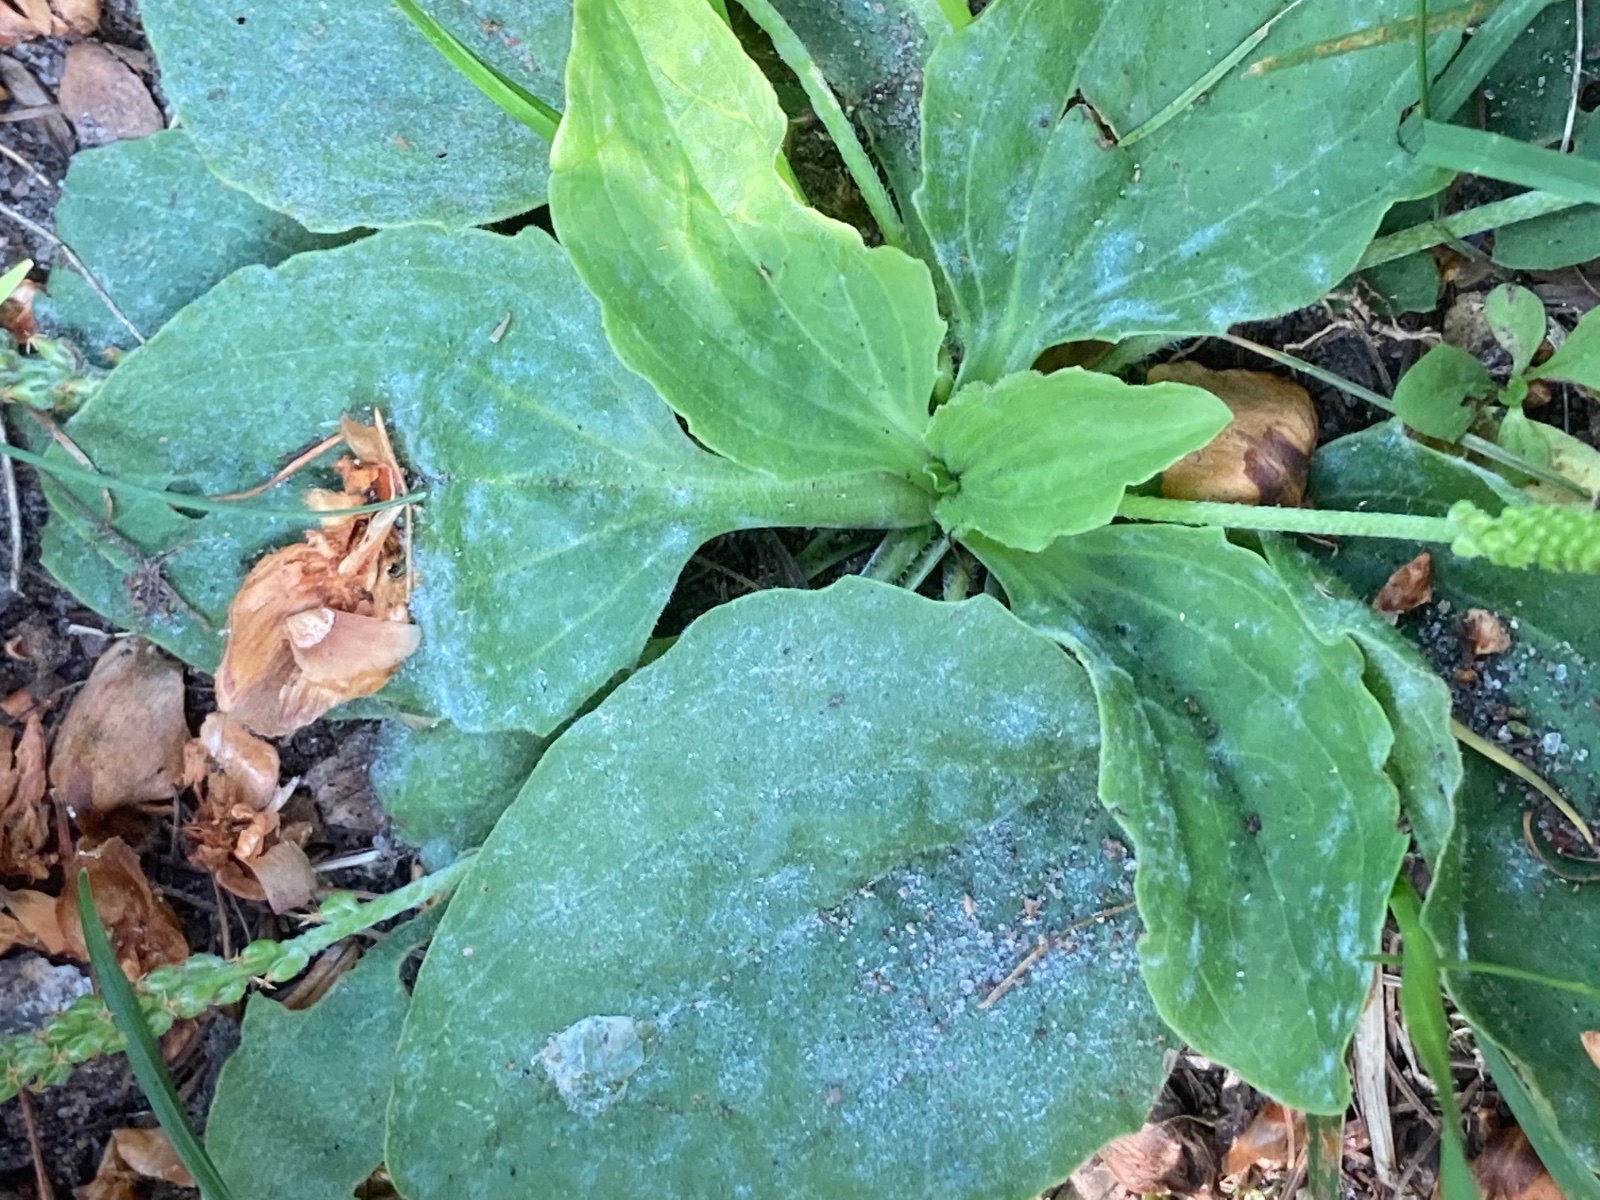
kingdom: Fungi
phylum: Ascomycota
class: Leotiomycetes
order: Helotiales
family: Erysiphaceae
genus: Golovinomyces
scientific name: Golovinomyces sordidus
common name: Plantain mildew
